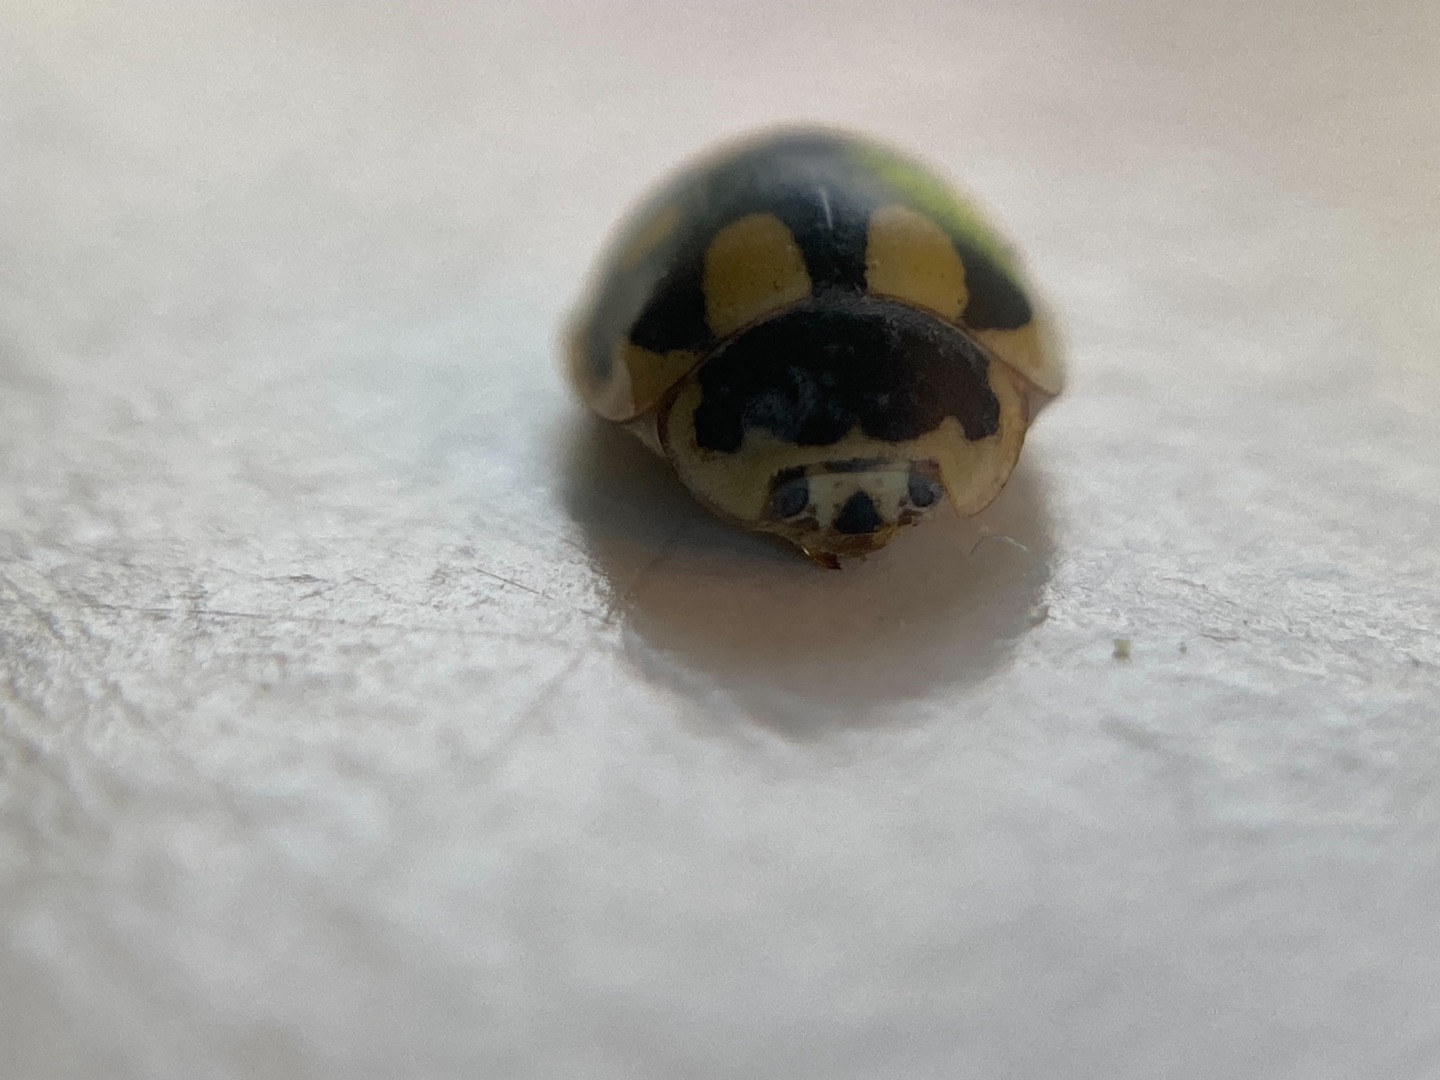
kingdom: Animalia
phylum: Arthropoda
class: Insecta
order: Coleoptera
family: Coccinellidae
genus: Propylaea
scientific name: Propylaea quatuordecimpunctata
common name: Skakbræt
